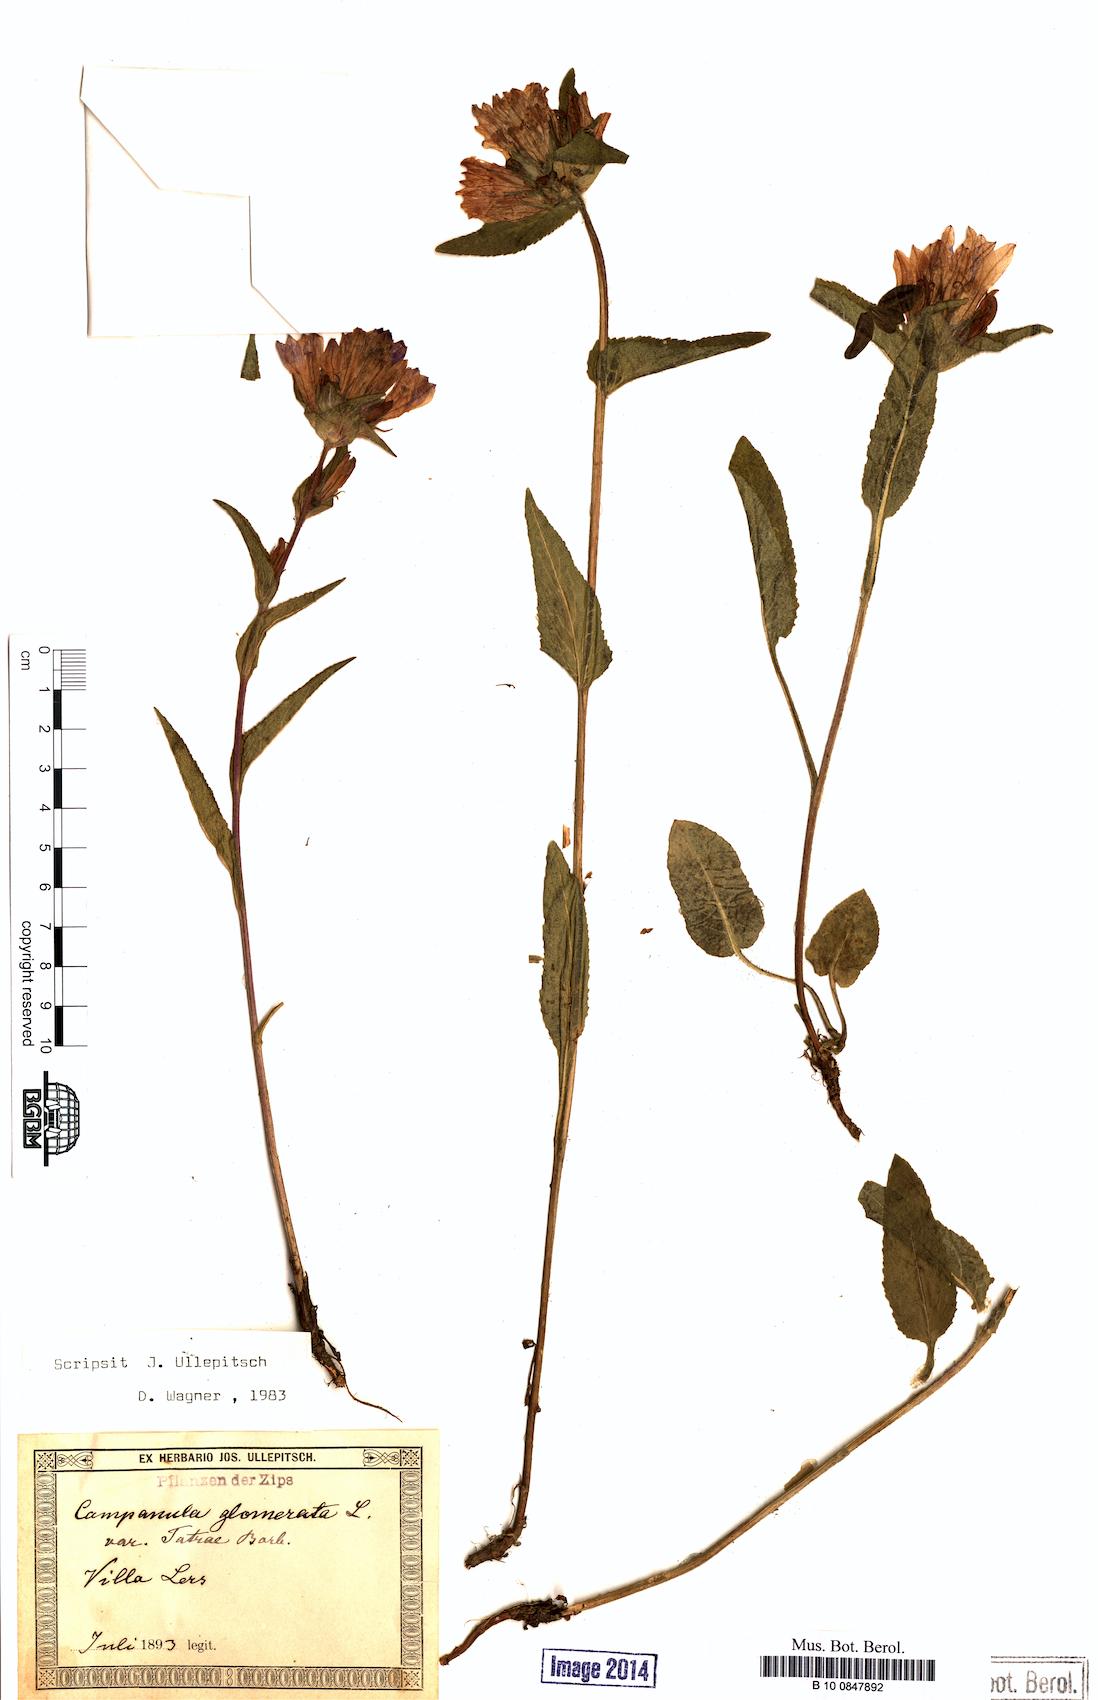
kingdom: Plantae
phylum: Tracheophyta
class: Magnoliopsida
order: Asterales
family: Campanulaceae
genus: Campanula
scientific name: Campanula glomerata
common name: Clustered bellflower
